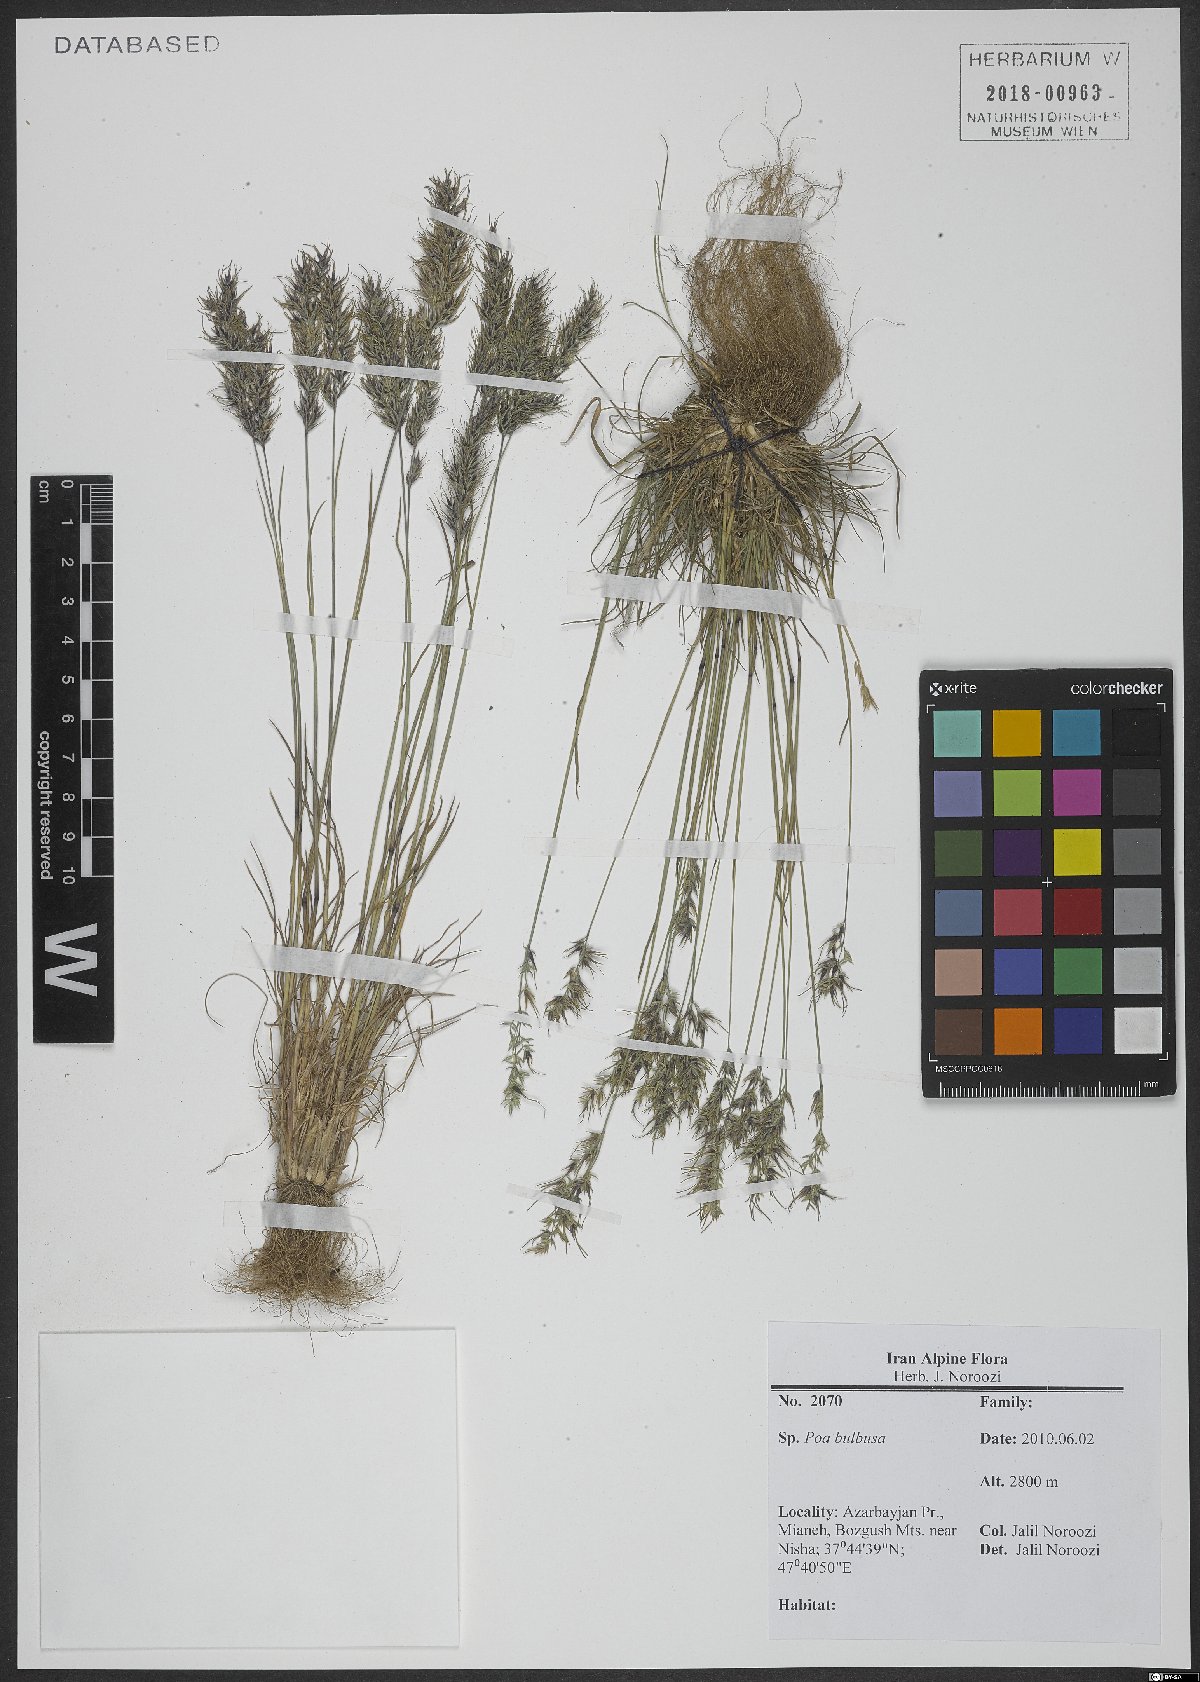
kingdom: Plantae
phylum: Tracheophyta
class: Liliopsida
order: Poales
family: Poaceae
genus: Poa
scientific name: Poa bulbosa
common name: Bulbous bluegrass
